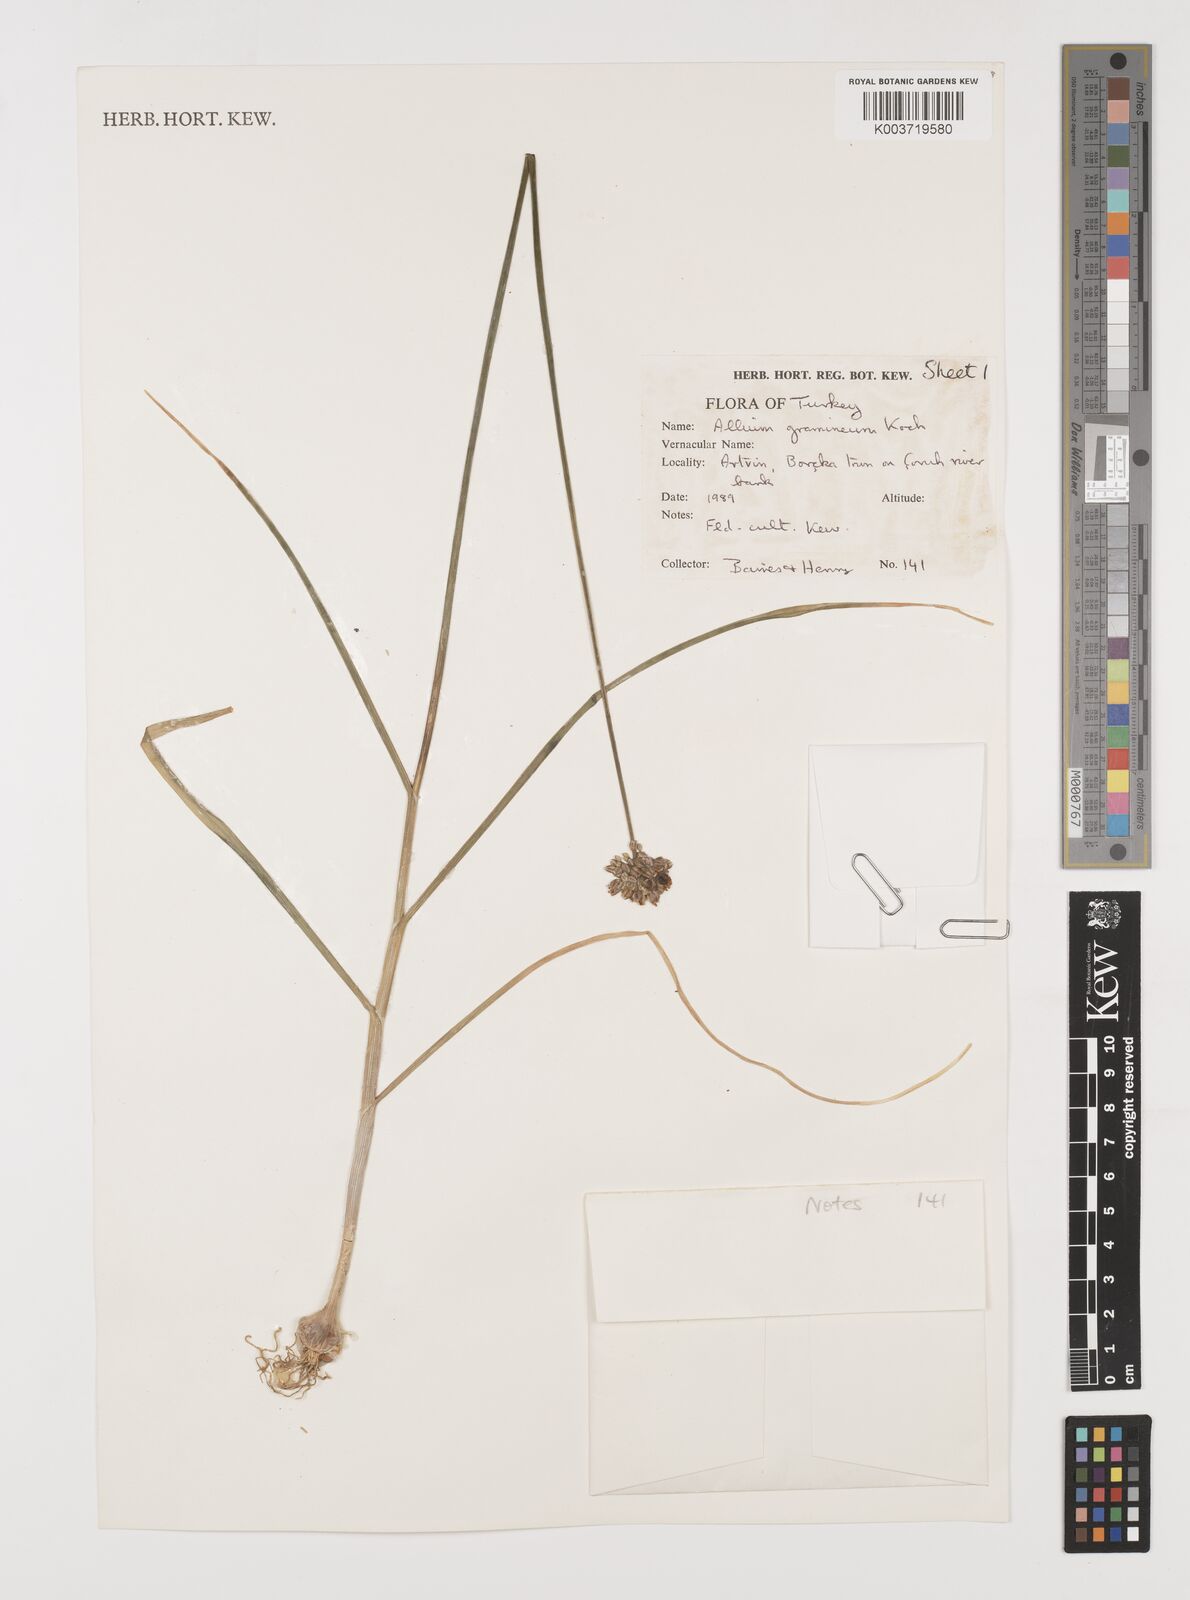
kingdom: Plantae
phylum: Tracheophyta
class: Liliopsida
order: Asparagales
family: Amaryllidaceae
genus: Allium
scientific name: Allium gramineum
